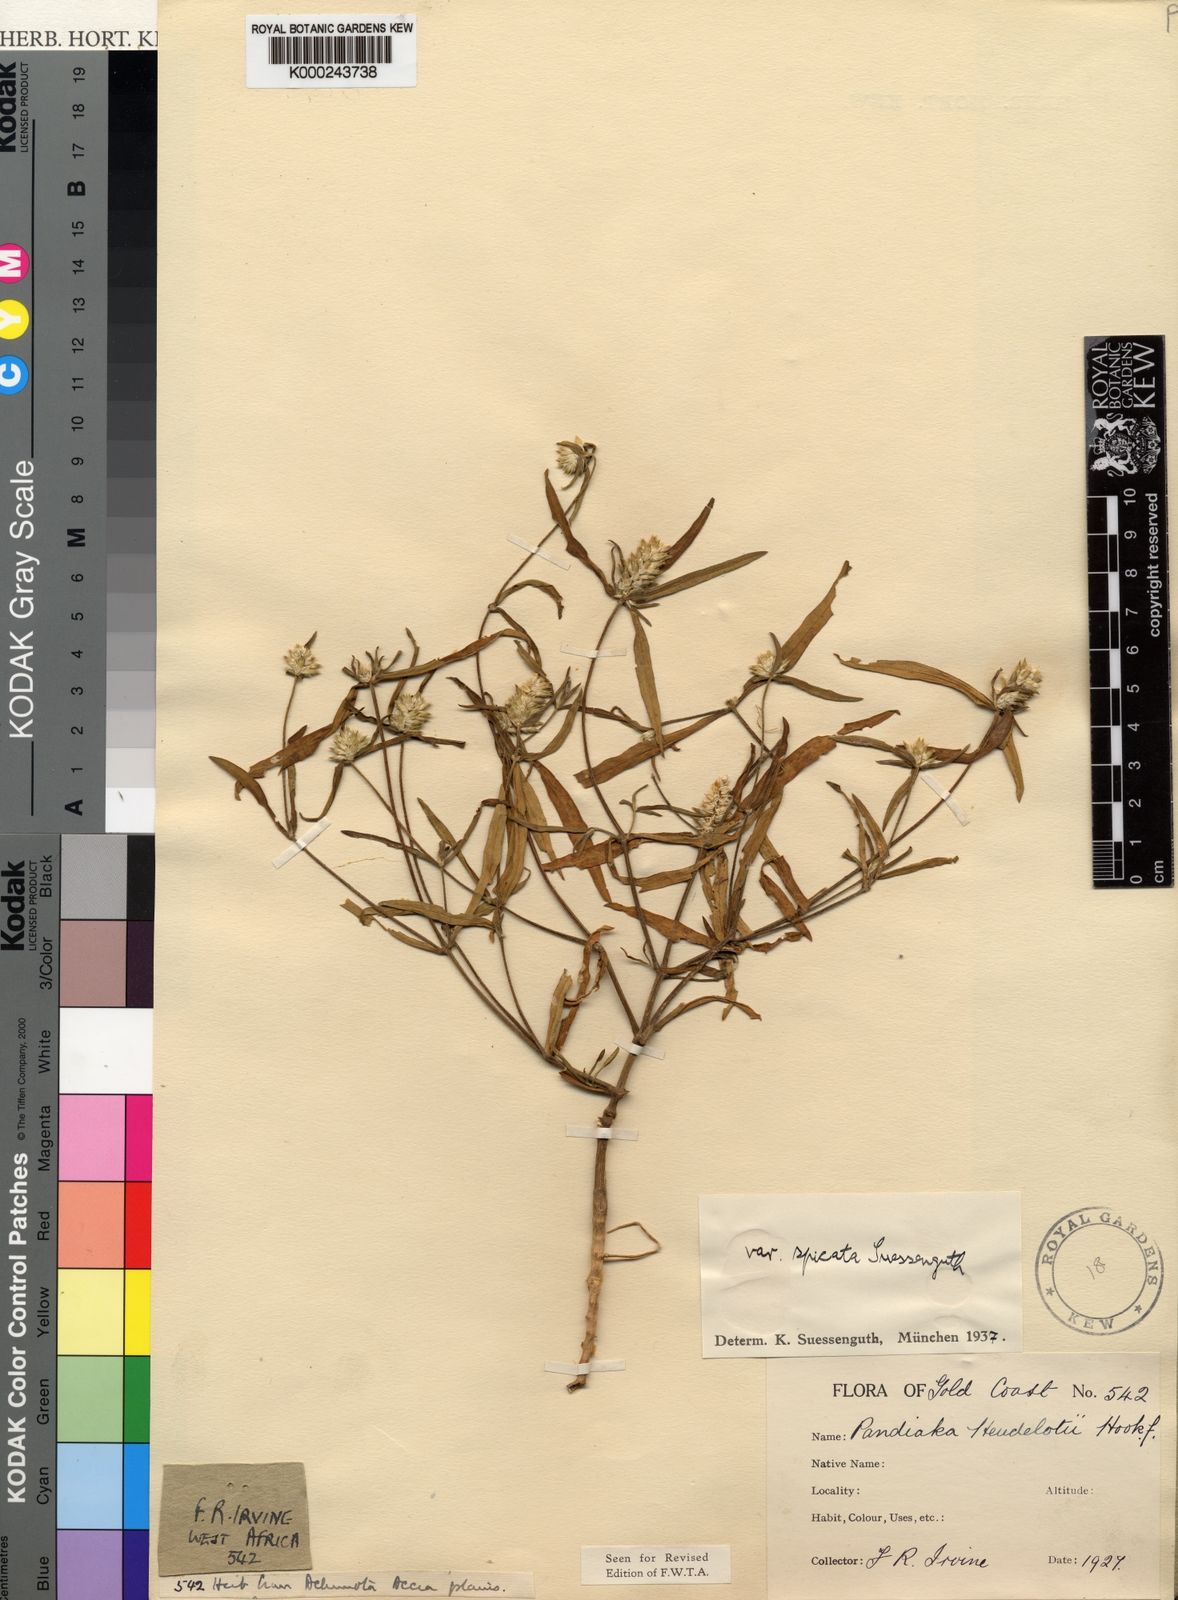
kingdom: Plantae
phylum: Tracheophyta
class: Magnoliopsida
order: Caryophyllales
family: Amaranthaceae
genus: Pandiaka
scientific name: Pandiaka
